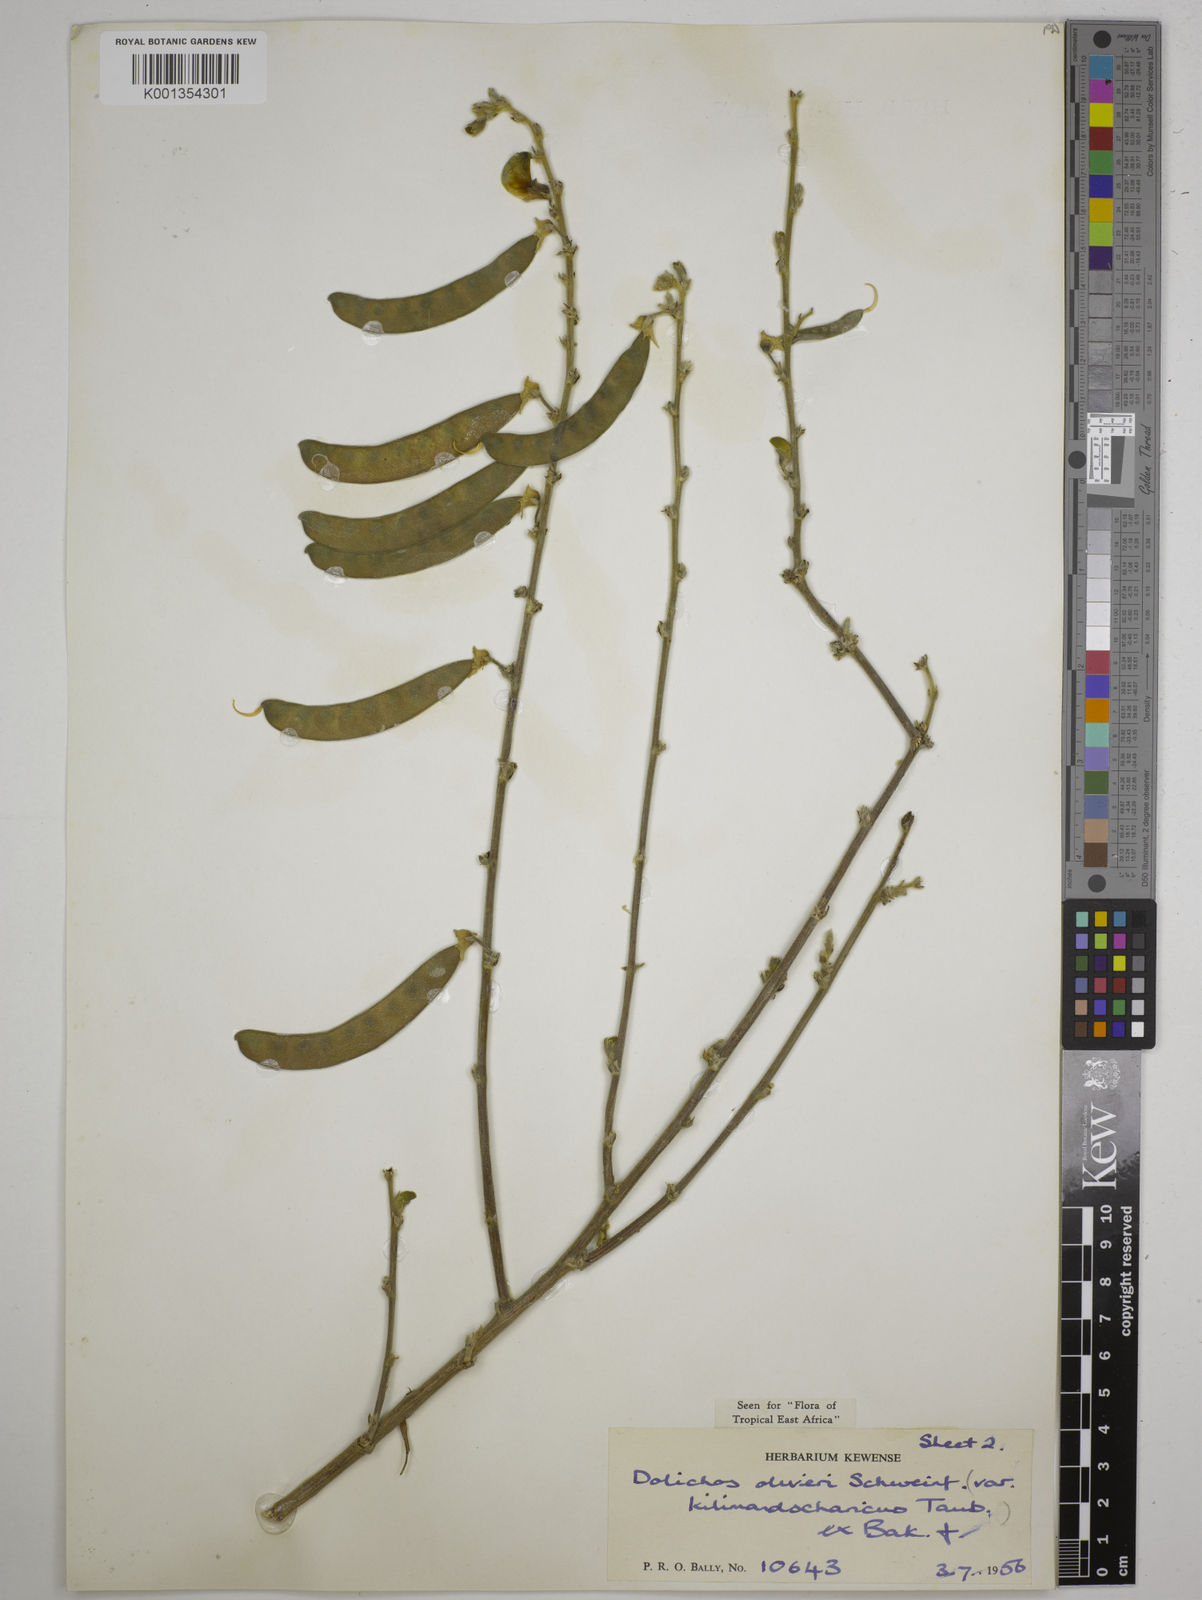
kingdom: Plantae
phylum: Tracheophyta
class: Magnoliopsida
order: Fabales
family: Fabaceae
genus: Dolichos
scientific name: Dolichos oliveri
